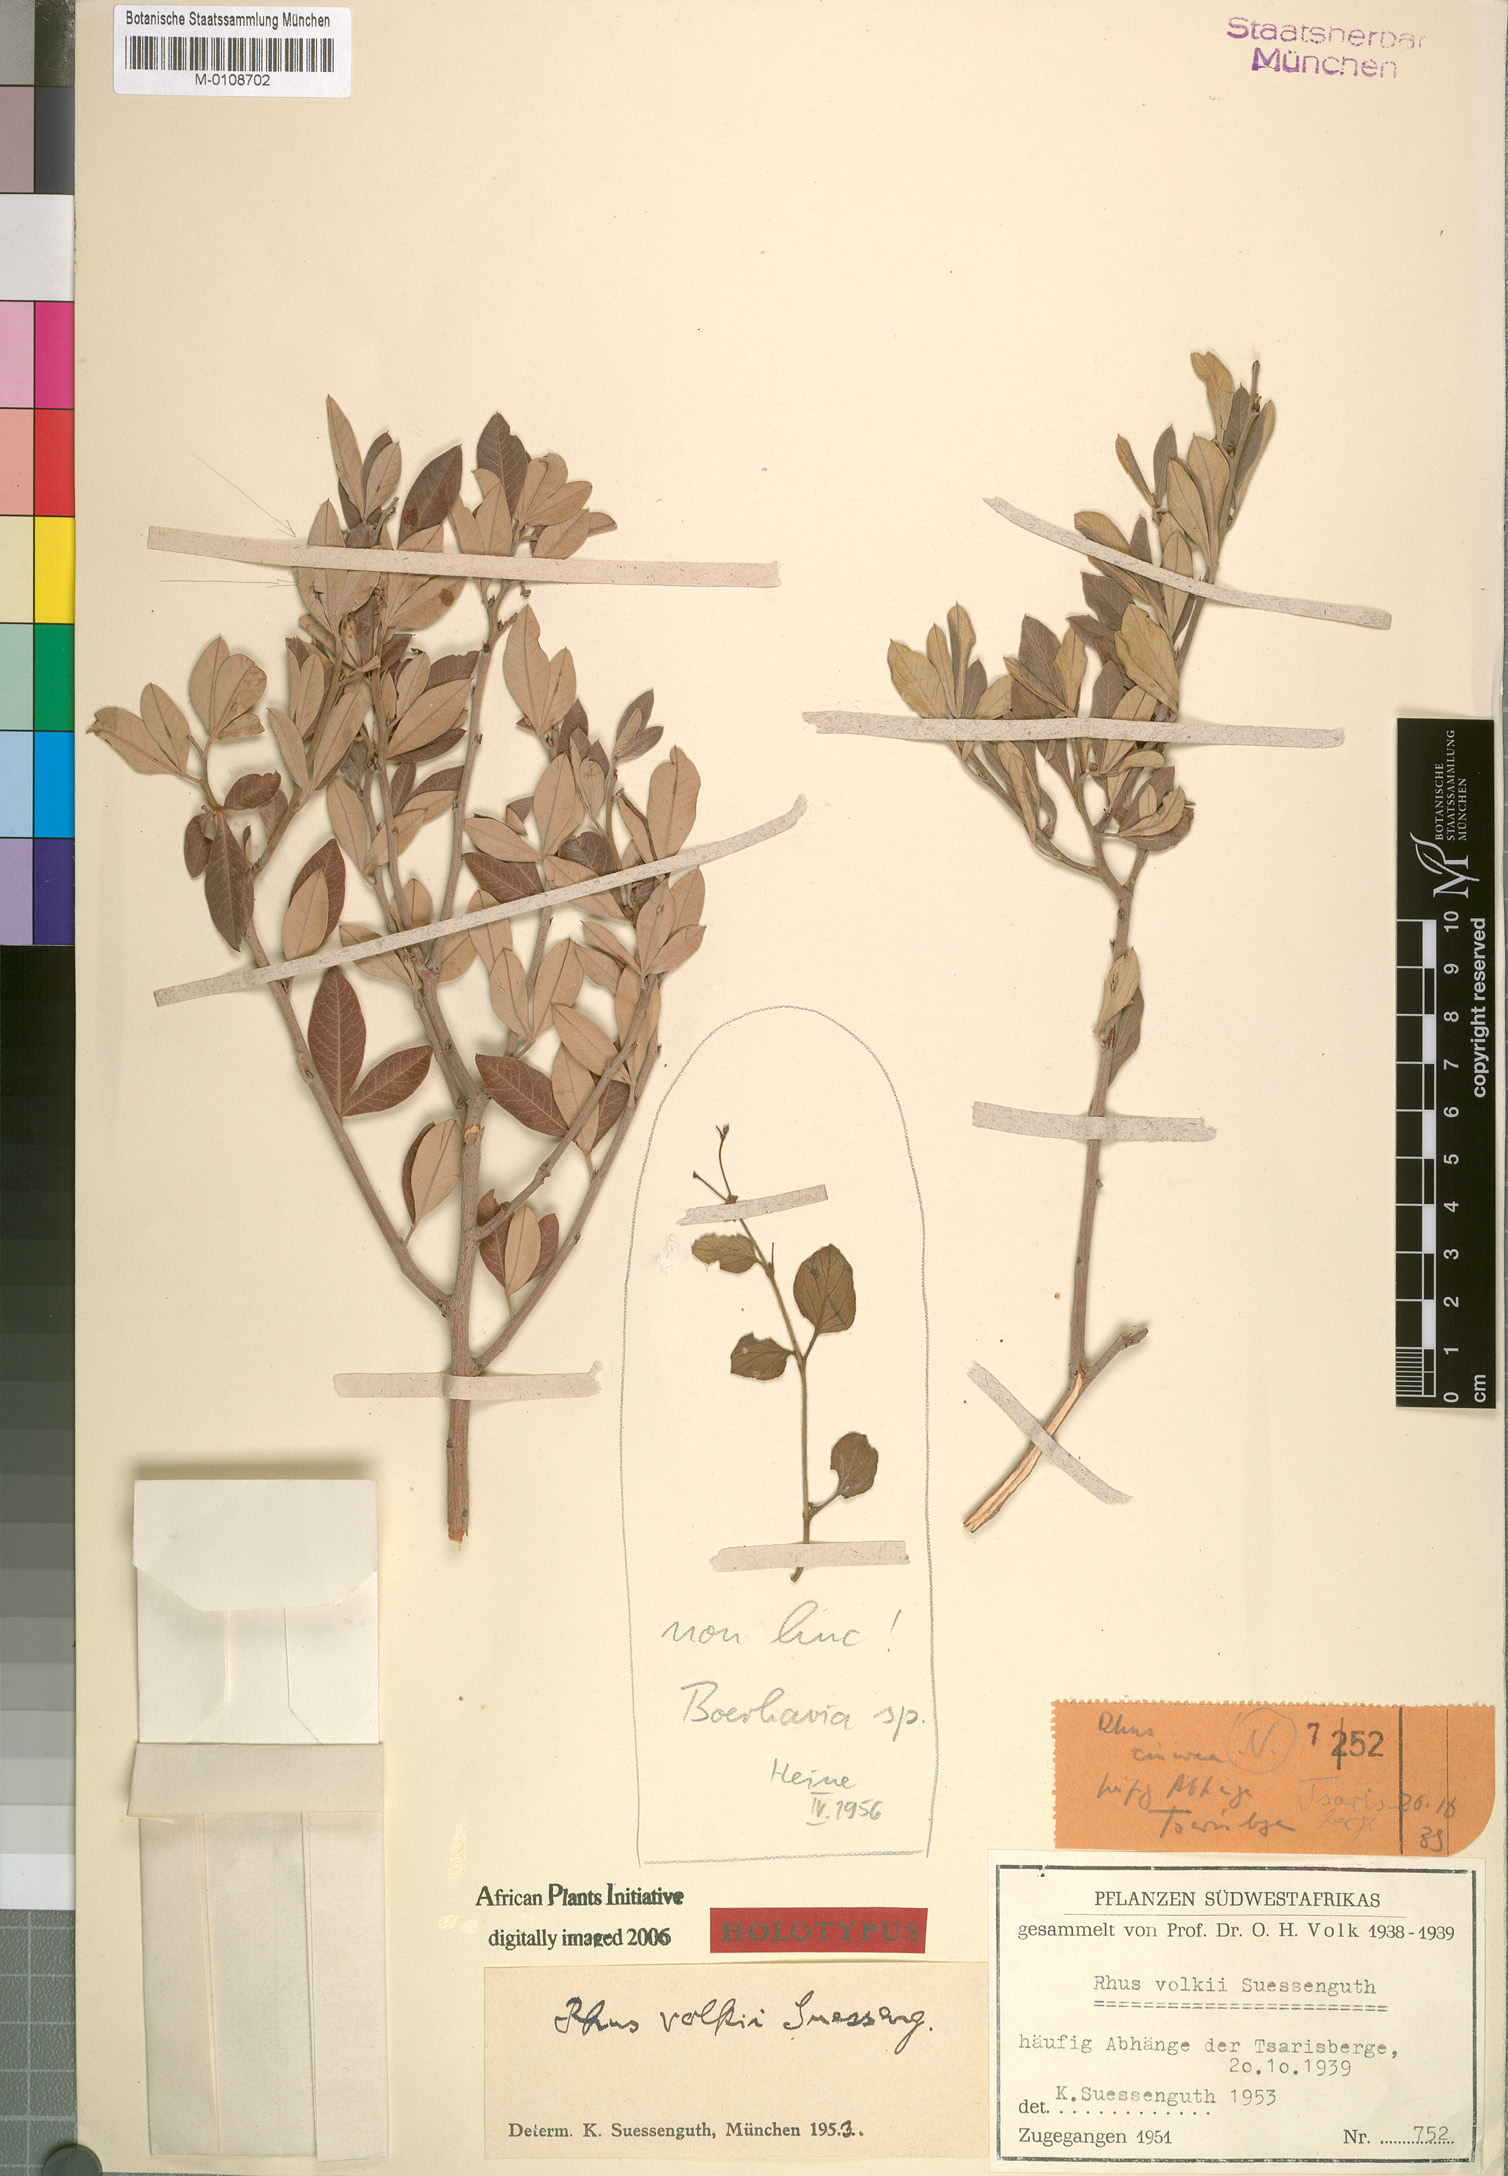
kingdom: Plantae
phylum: Tracheophyta
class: Magnoliopsida
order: Sapindales
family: Anacardiaceae
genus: Searsia
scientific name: Searsia volkii
